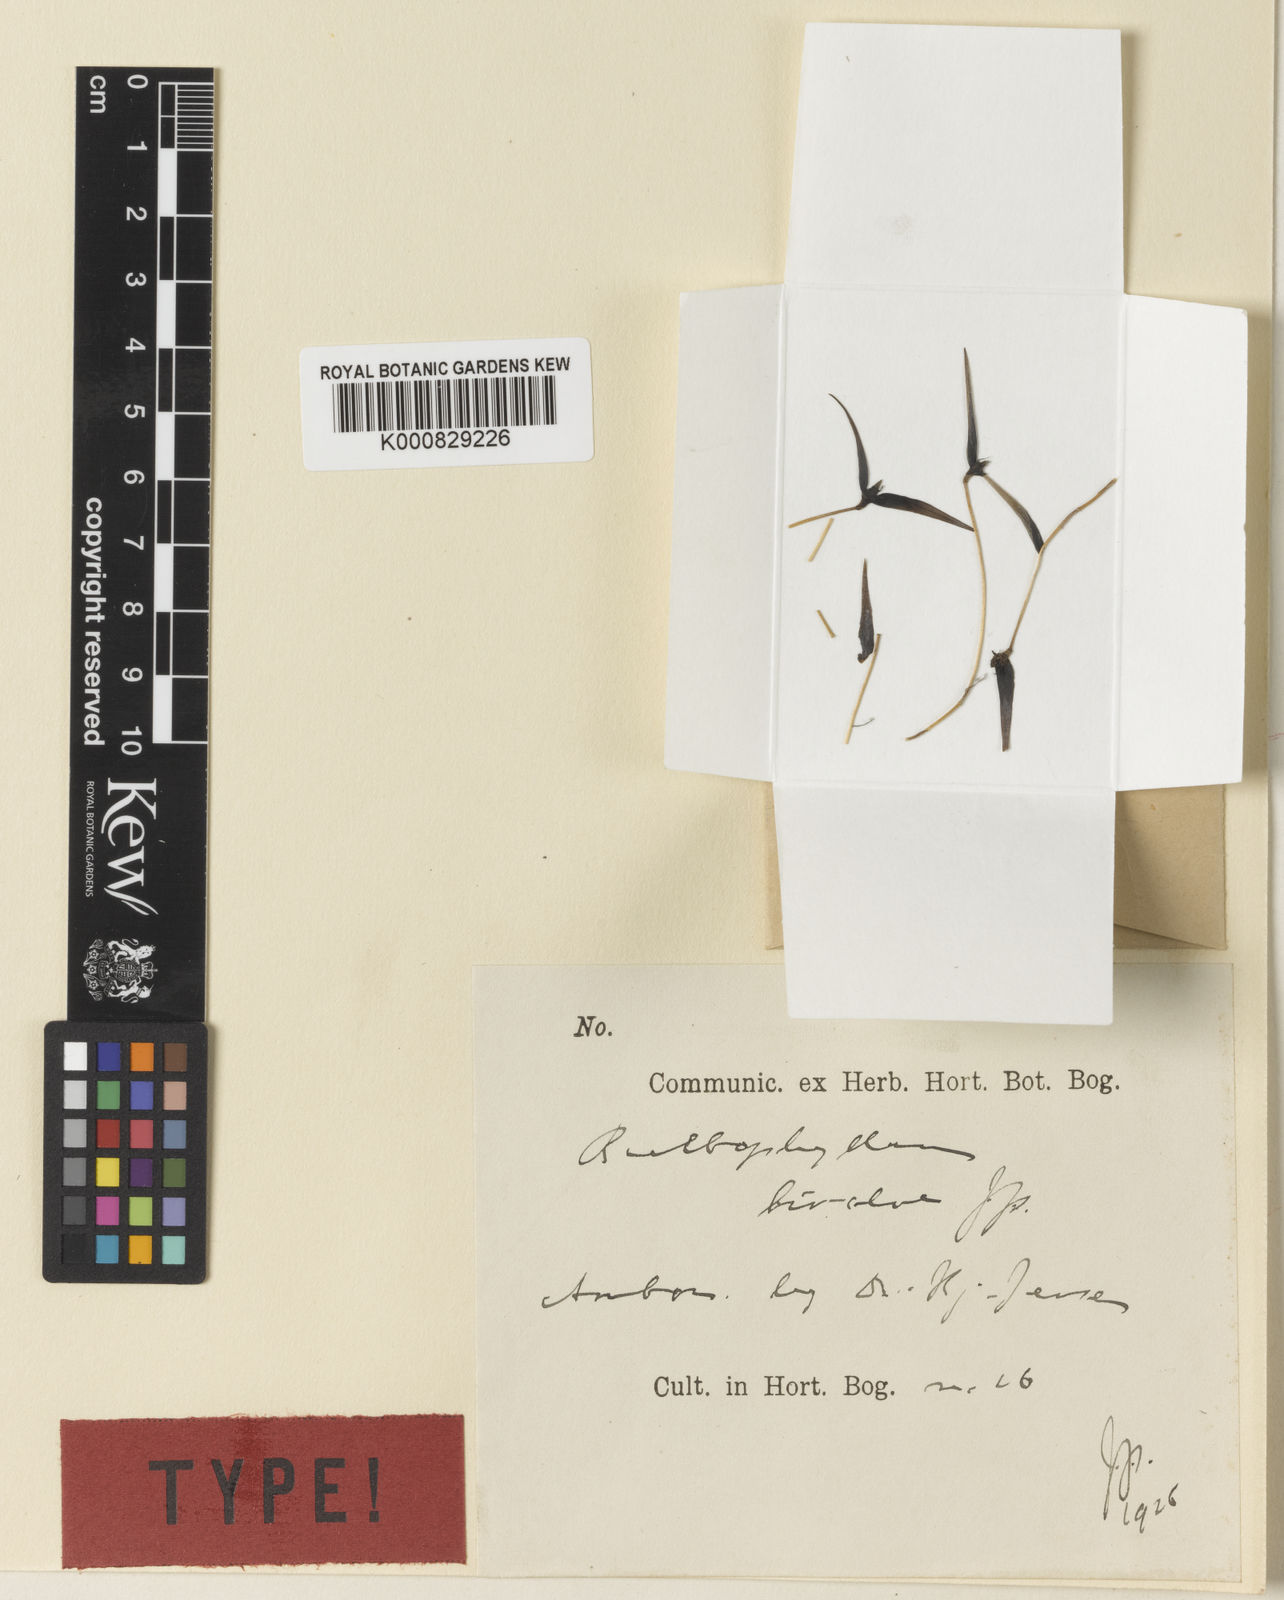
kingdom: Plantae
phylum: Tracheophyta
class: Liliopsida
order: Asparagales
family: Orchidaceae
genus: Bulbophyllum
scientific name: Bulbophyllum ericssonii
